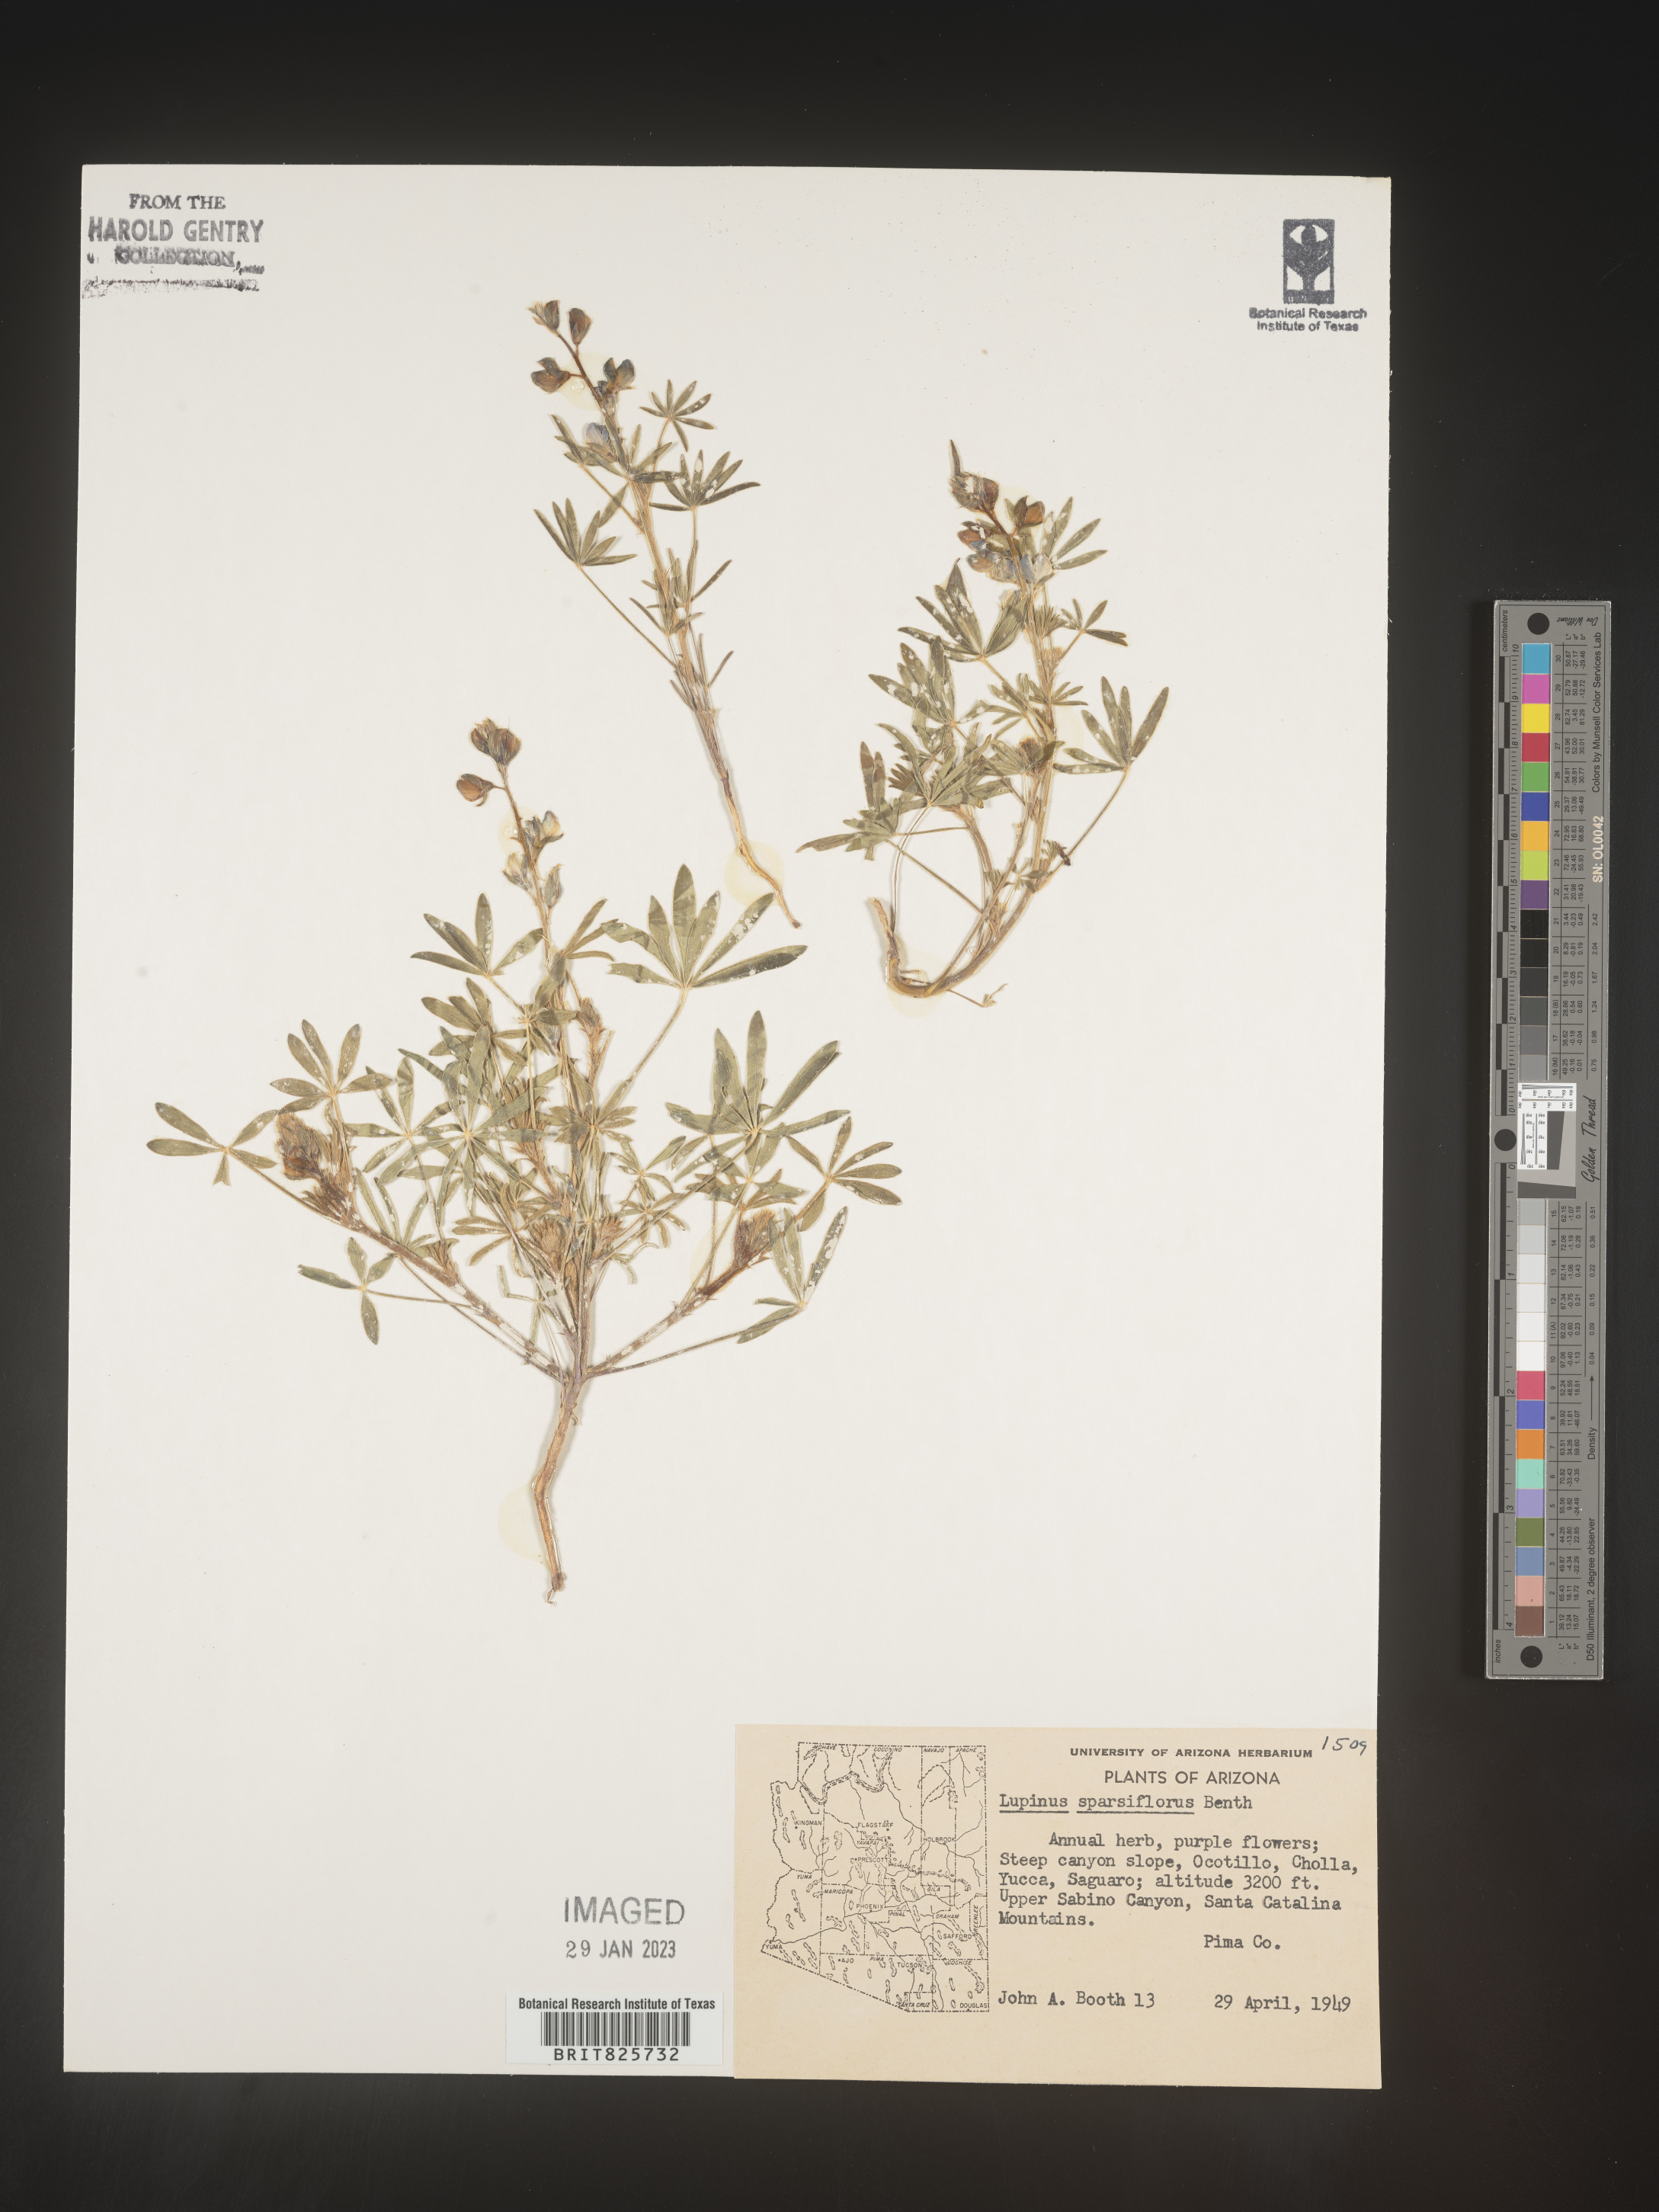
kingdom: Plantae
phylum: Tracheophyta
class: Magnoliopsida
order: Fabales
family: Fabaceae
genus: Lupinus
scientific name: Lupinus
